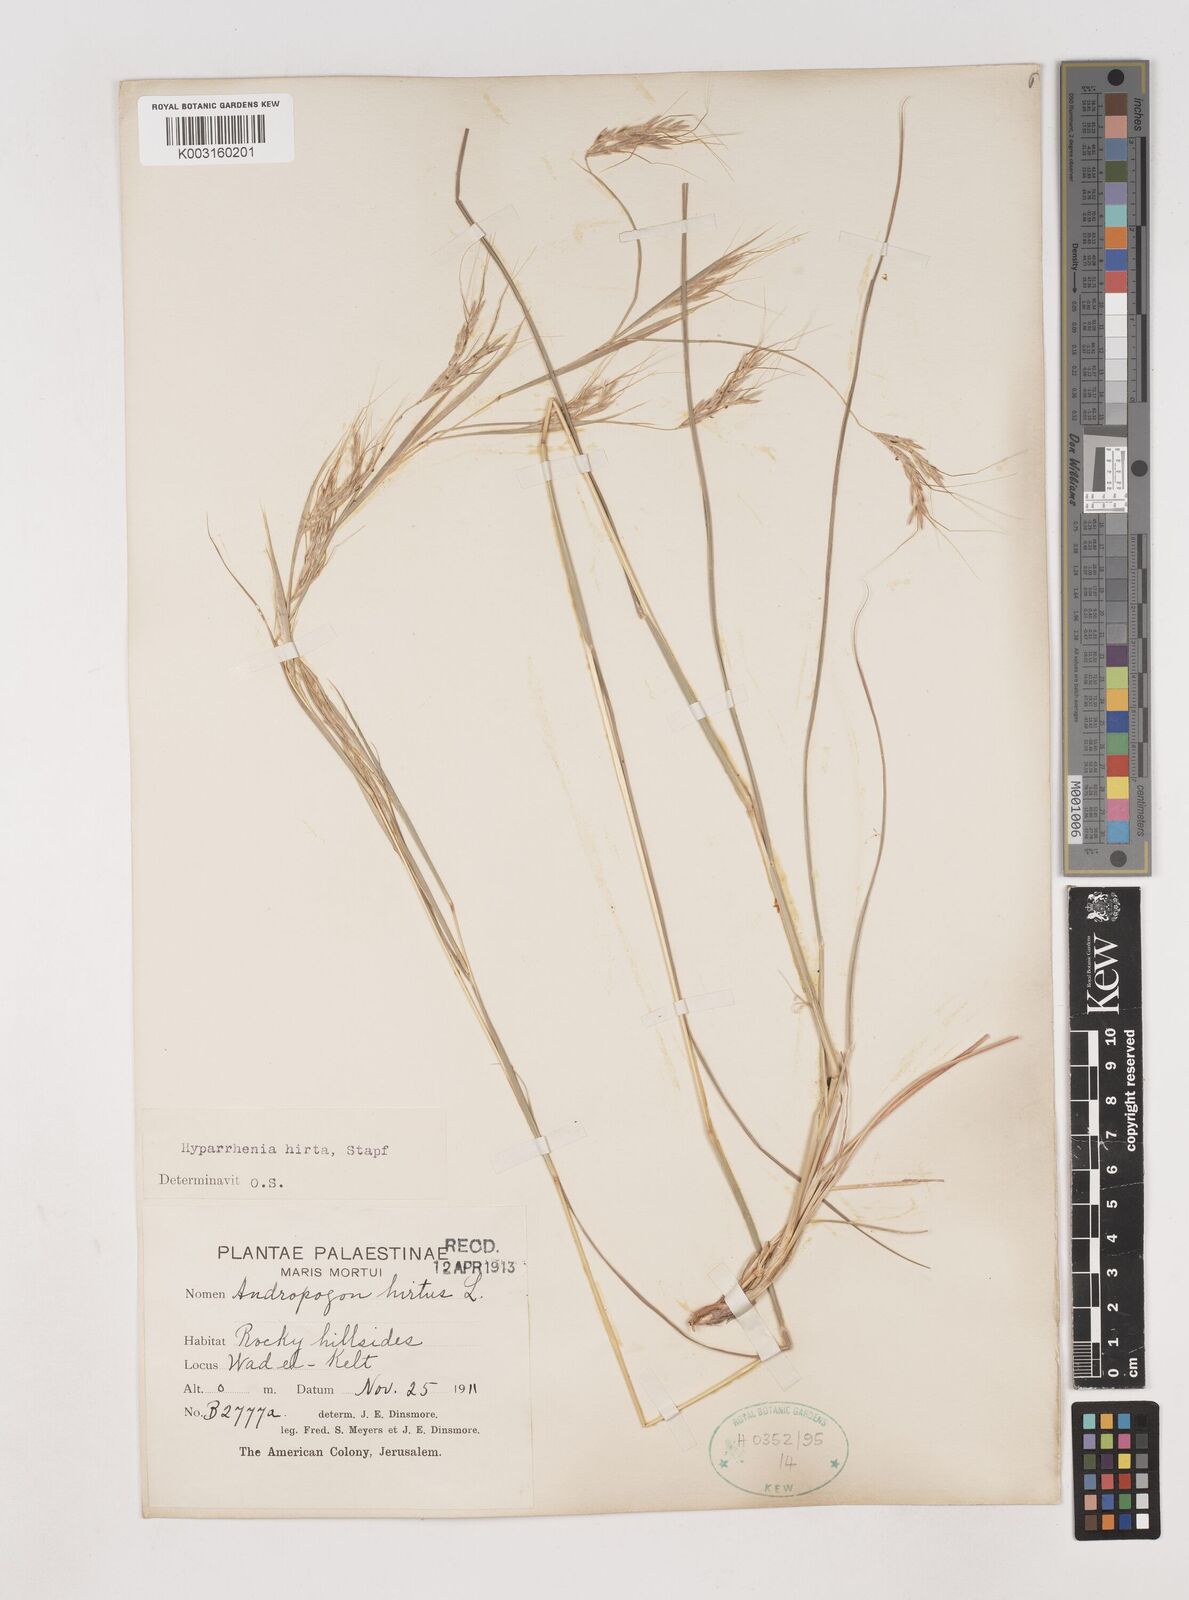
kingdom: Plantae
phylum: Tracheophyta
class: Liliopsida
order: Poales
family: Poaceae
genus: Hyparrhenia
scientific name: Hyparrhenia hirta
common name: Thatching grass
